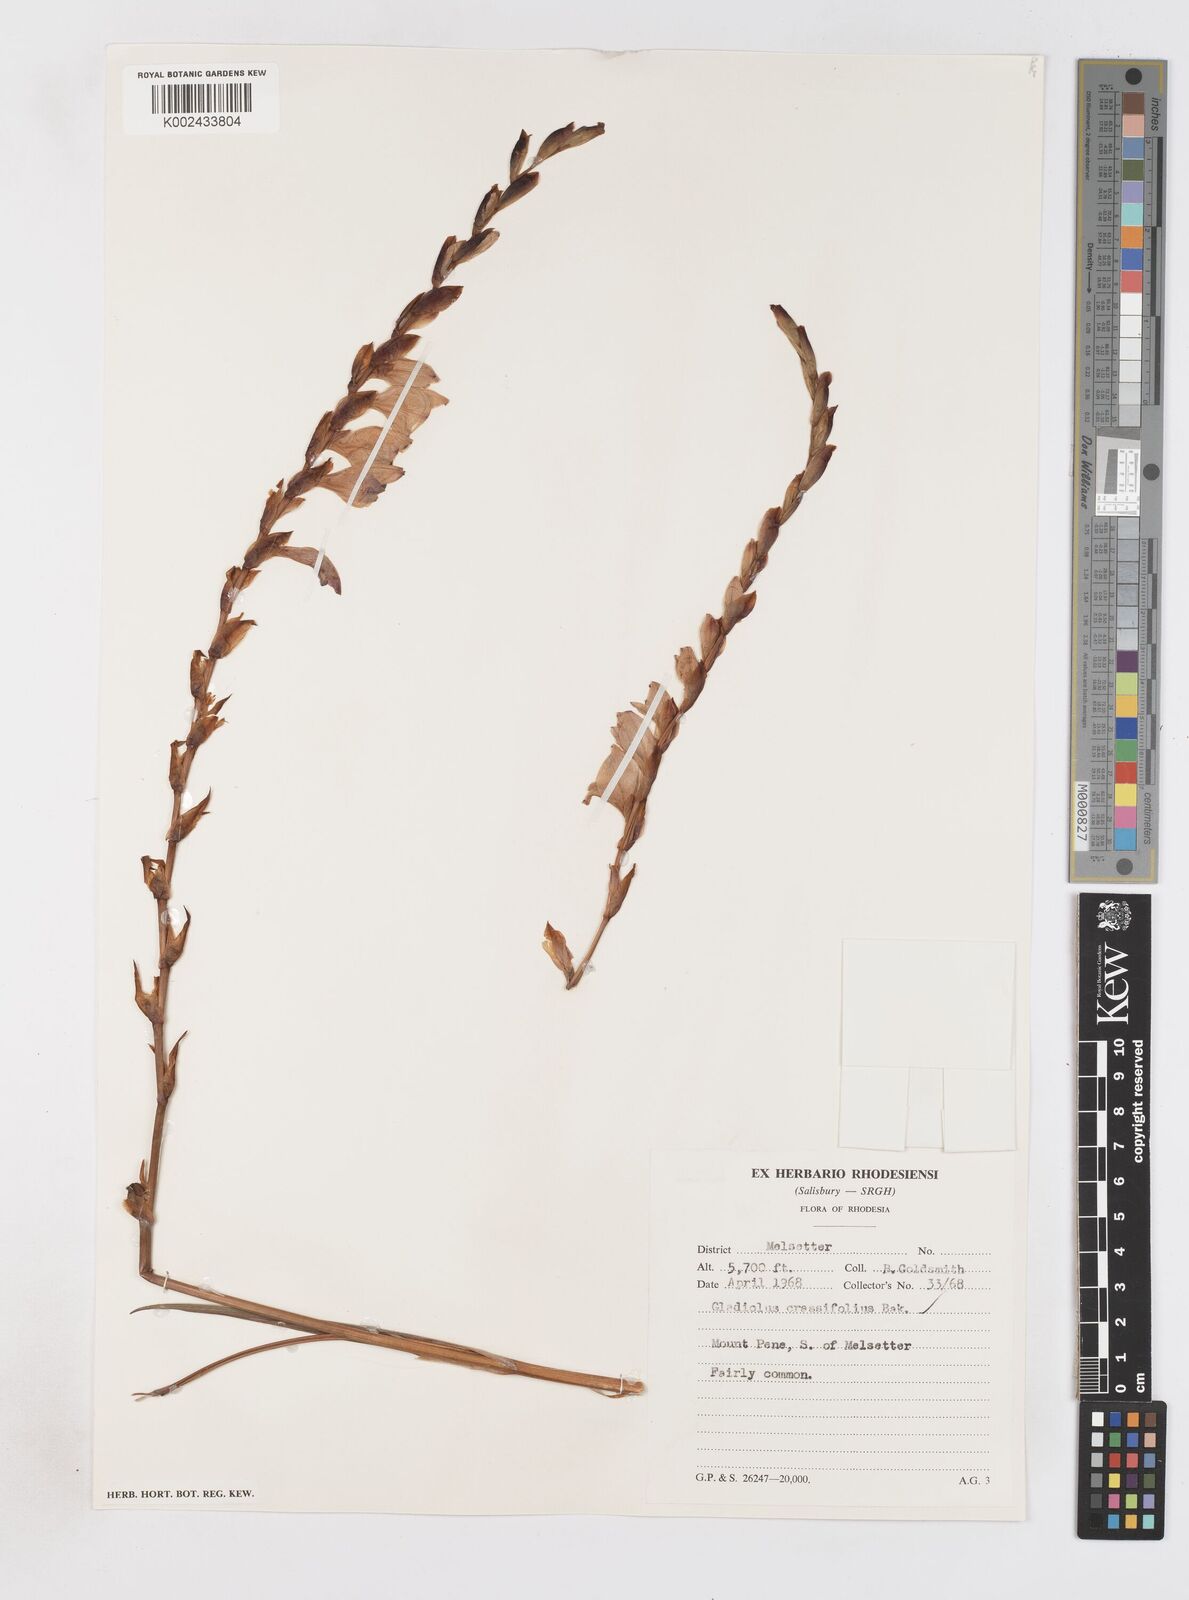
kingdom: Plantae
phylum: Tracheophyta
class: Liliopsida
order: Asparagales
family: Iridaceae
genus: Gladiolus
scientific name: Gladiolus crassifolius
